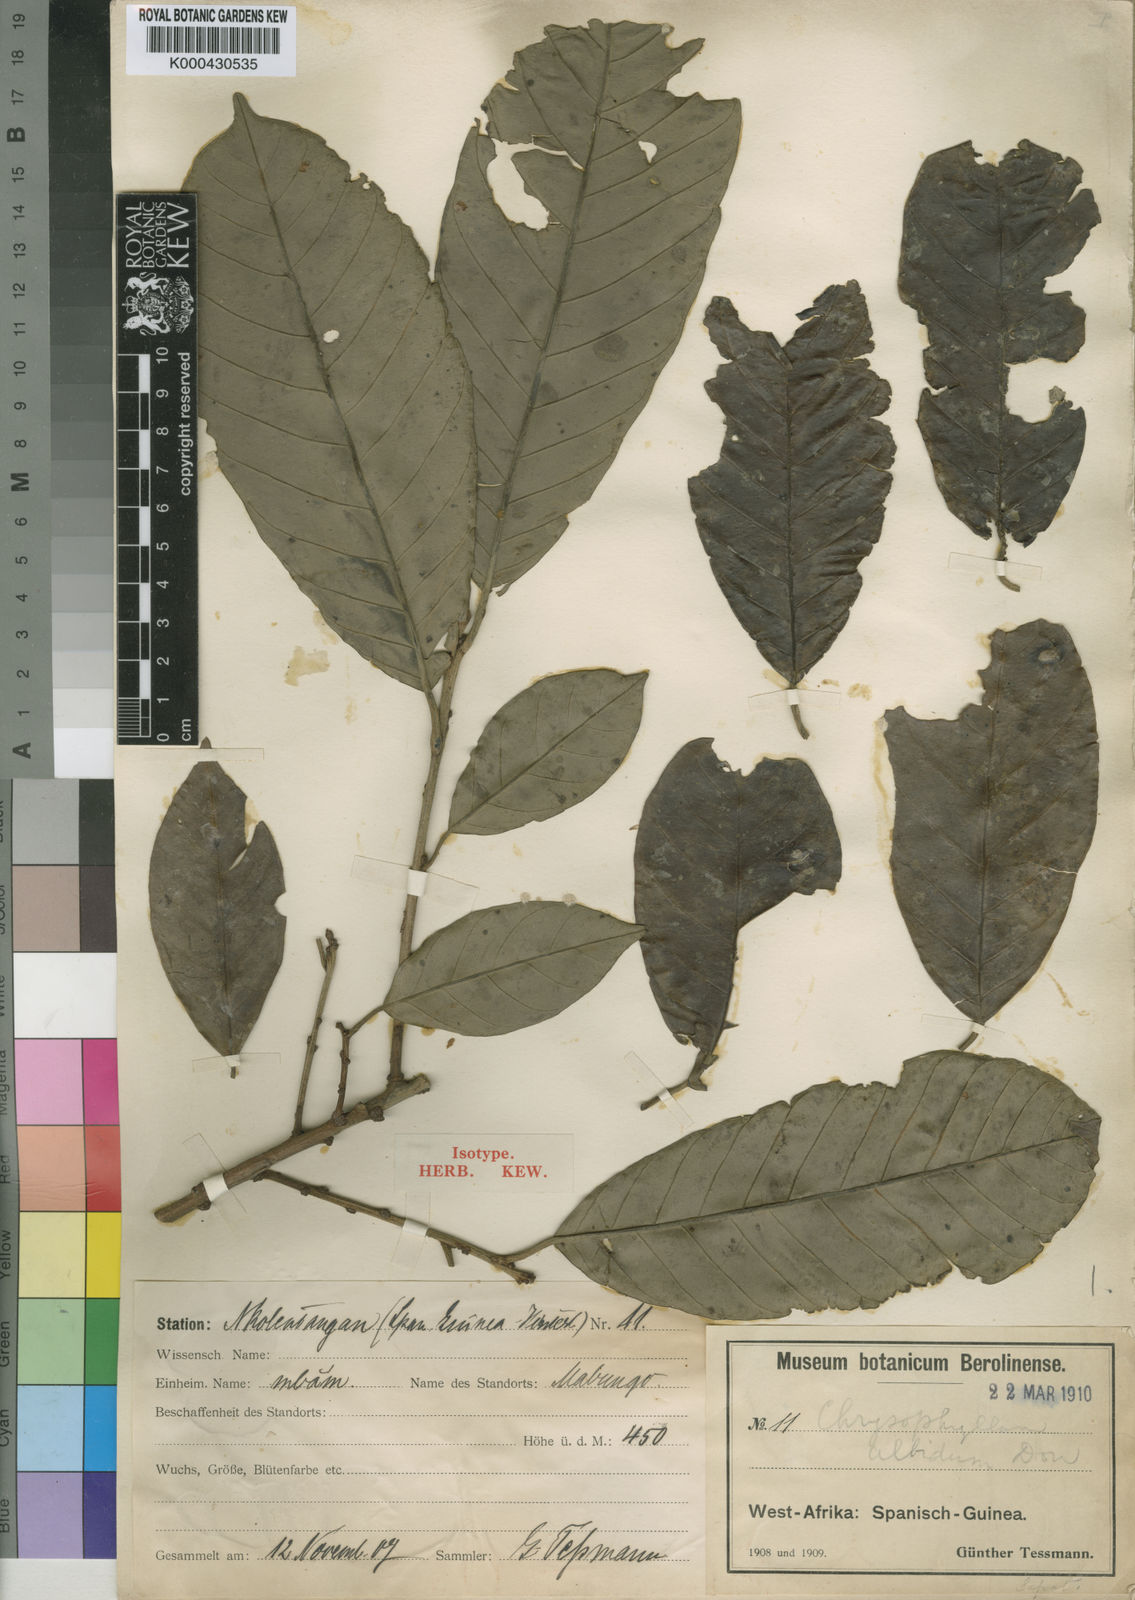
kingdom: Plantae
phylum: Tracheophyta
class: Magnoliopsida
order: Ericales
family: Sapotaceae
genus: Gambeya
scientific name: Gambeya albida
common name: White star apple
